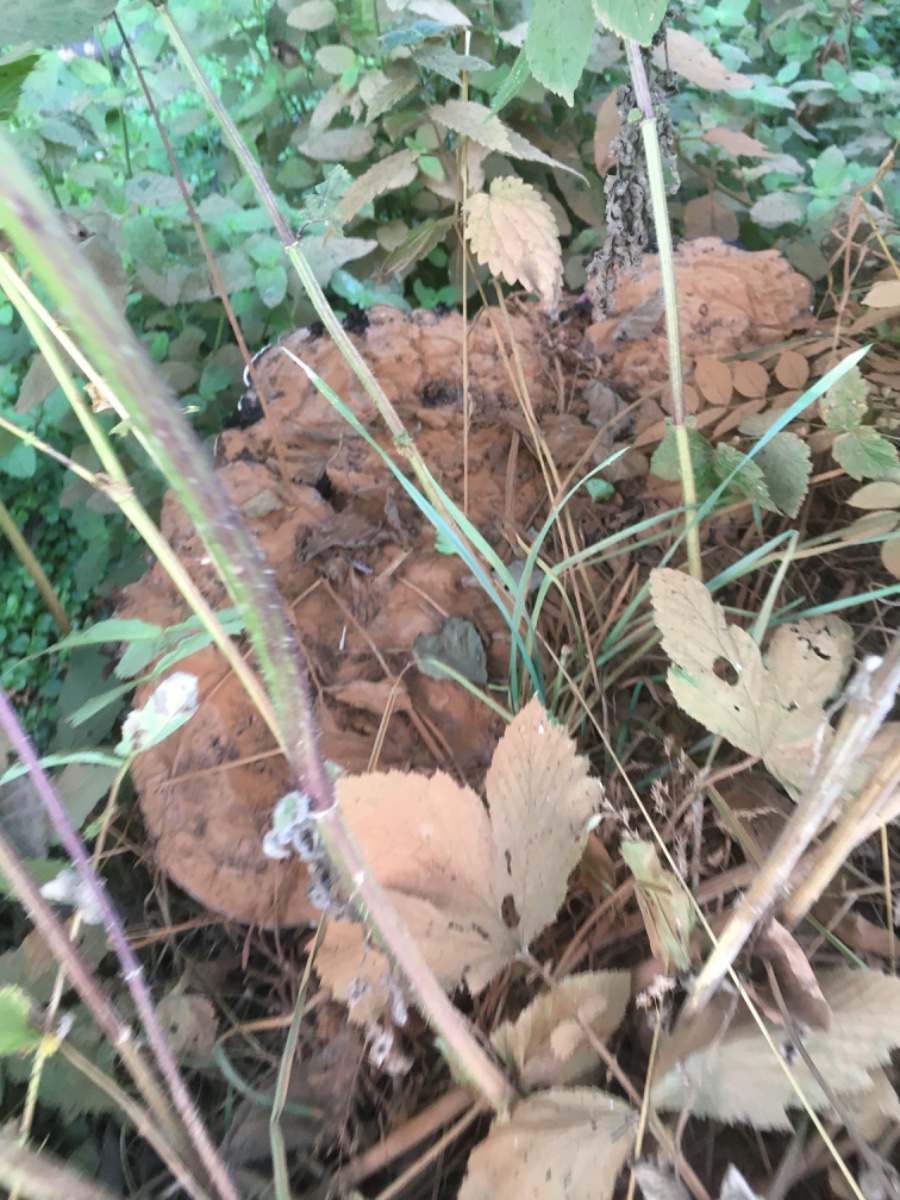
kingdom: Fungi
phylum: Basidiomycota
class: Agaricomycetes
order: Polyporales
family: Polyporaceae
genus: Ganoderma
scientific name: Ganoderma applanatum
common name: flad lakporesvamp
